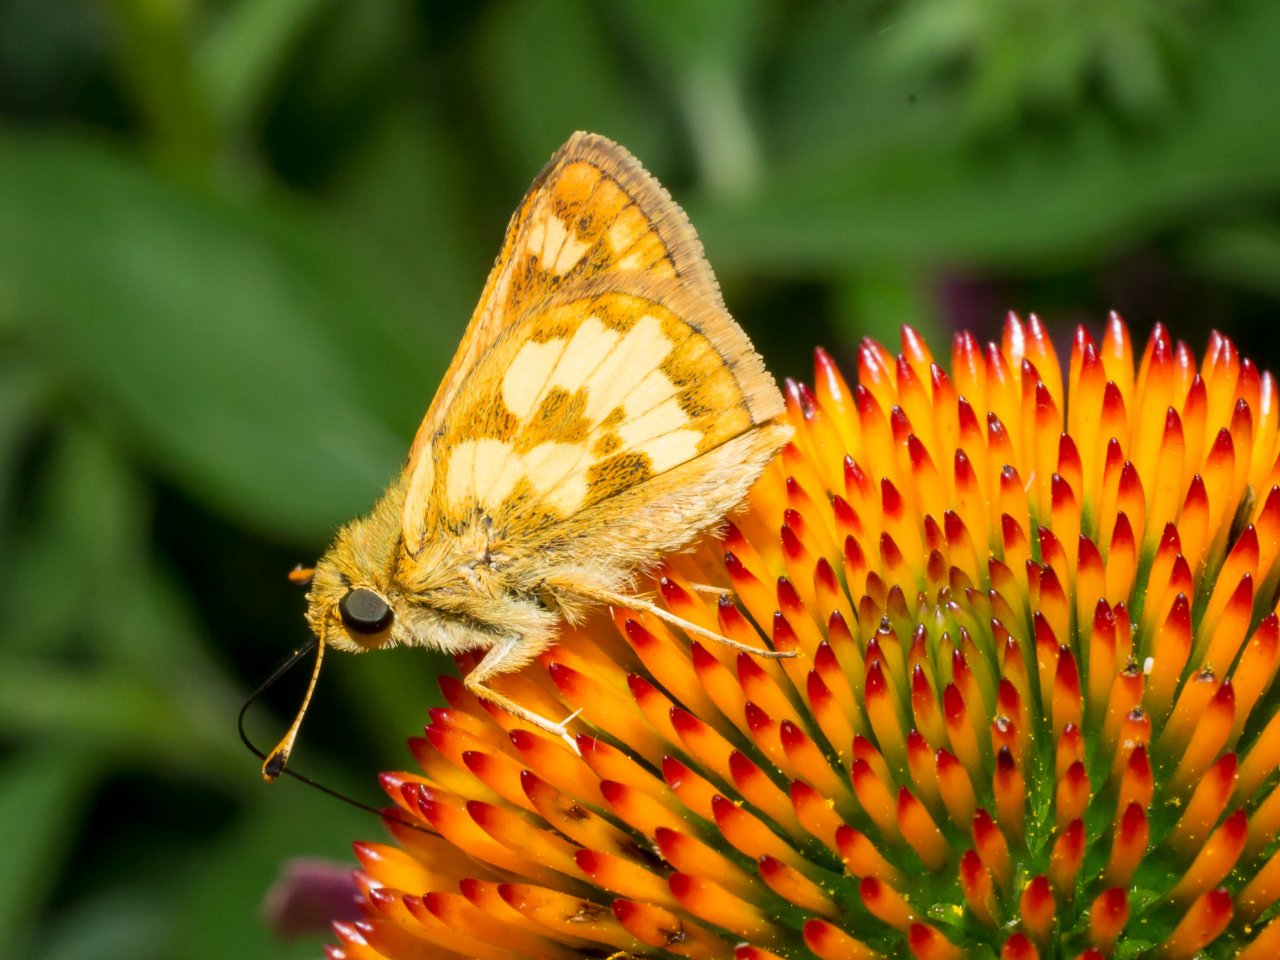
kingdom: Animalia
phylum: Arthropoda
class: Insecta
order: Lepidoptera
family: Hesperiidae
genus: Polites
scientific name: Polites coras
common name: Peck's Skipper
